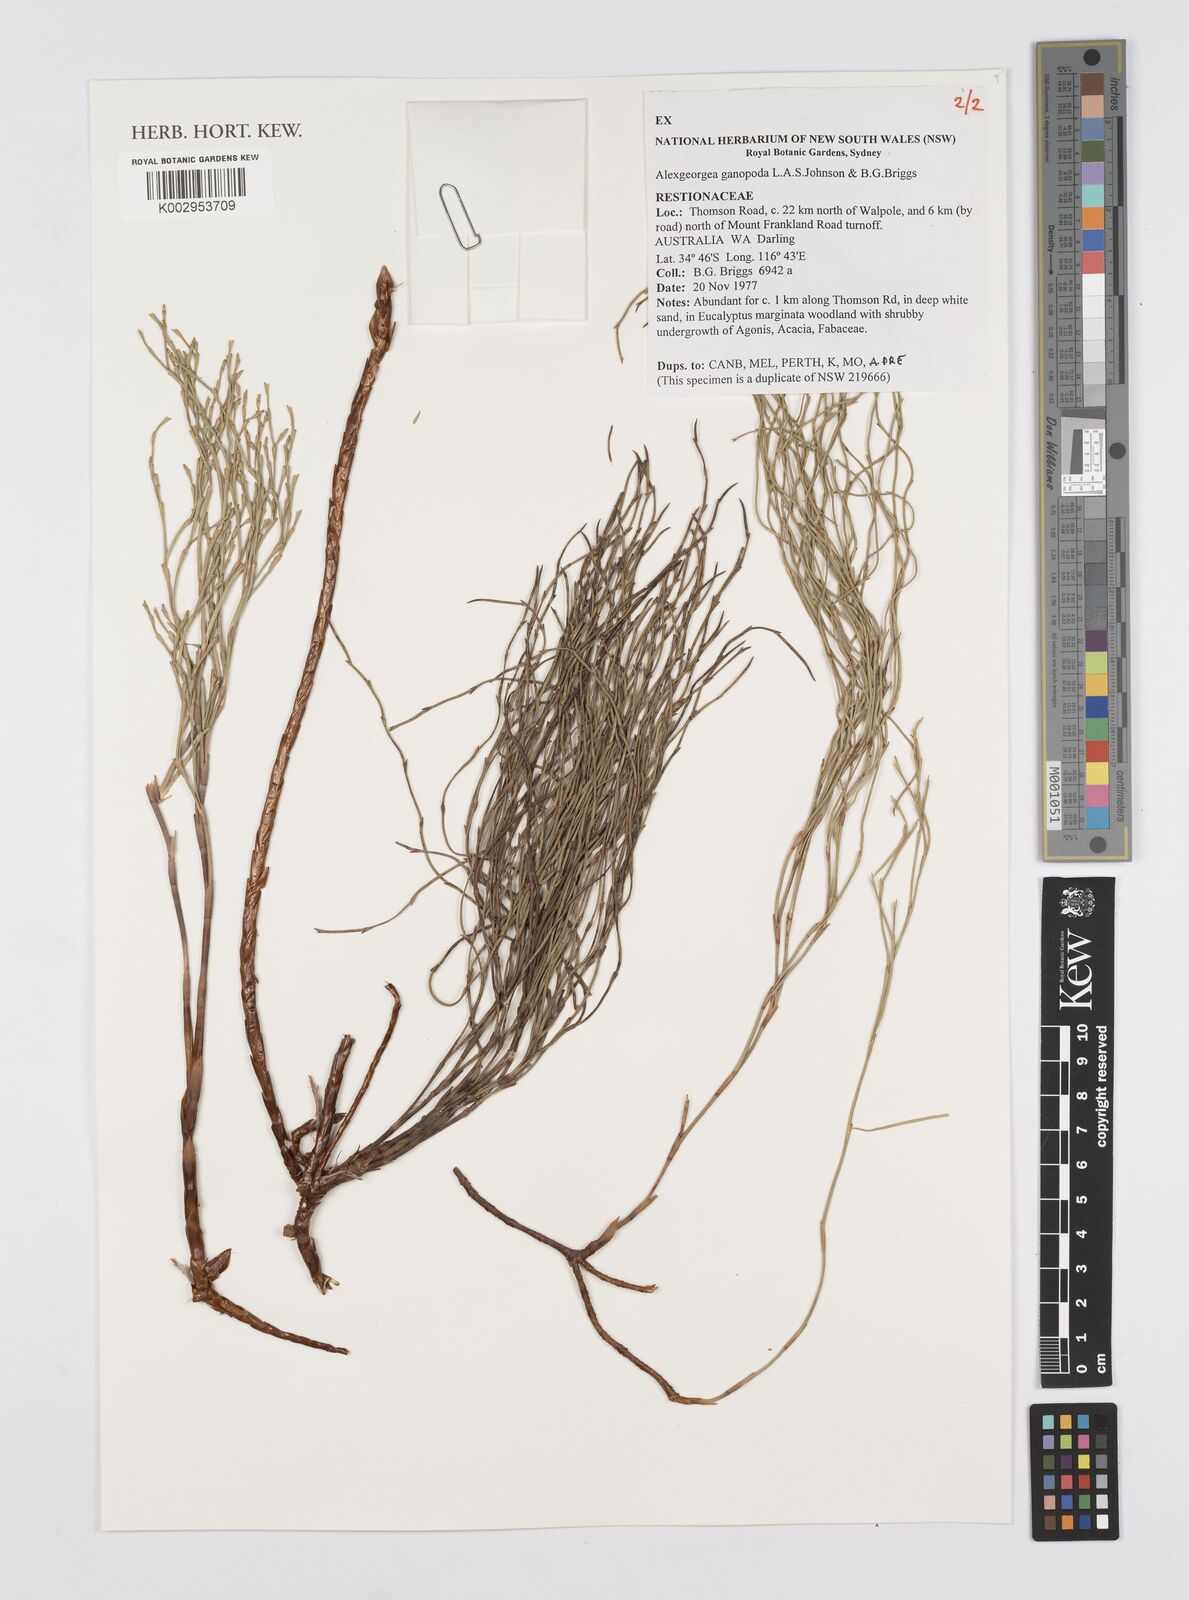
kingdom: Plantae
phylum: Tracheophyta
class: Liliopsida
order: Poales
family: Restionaceae
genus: Alexgeorgea
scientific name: Alexgeorgea ganopoda
